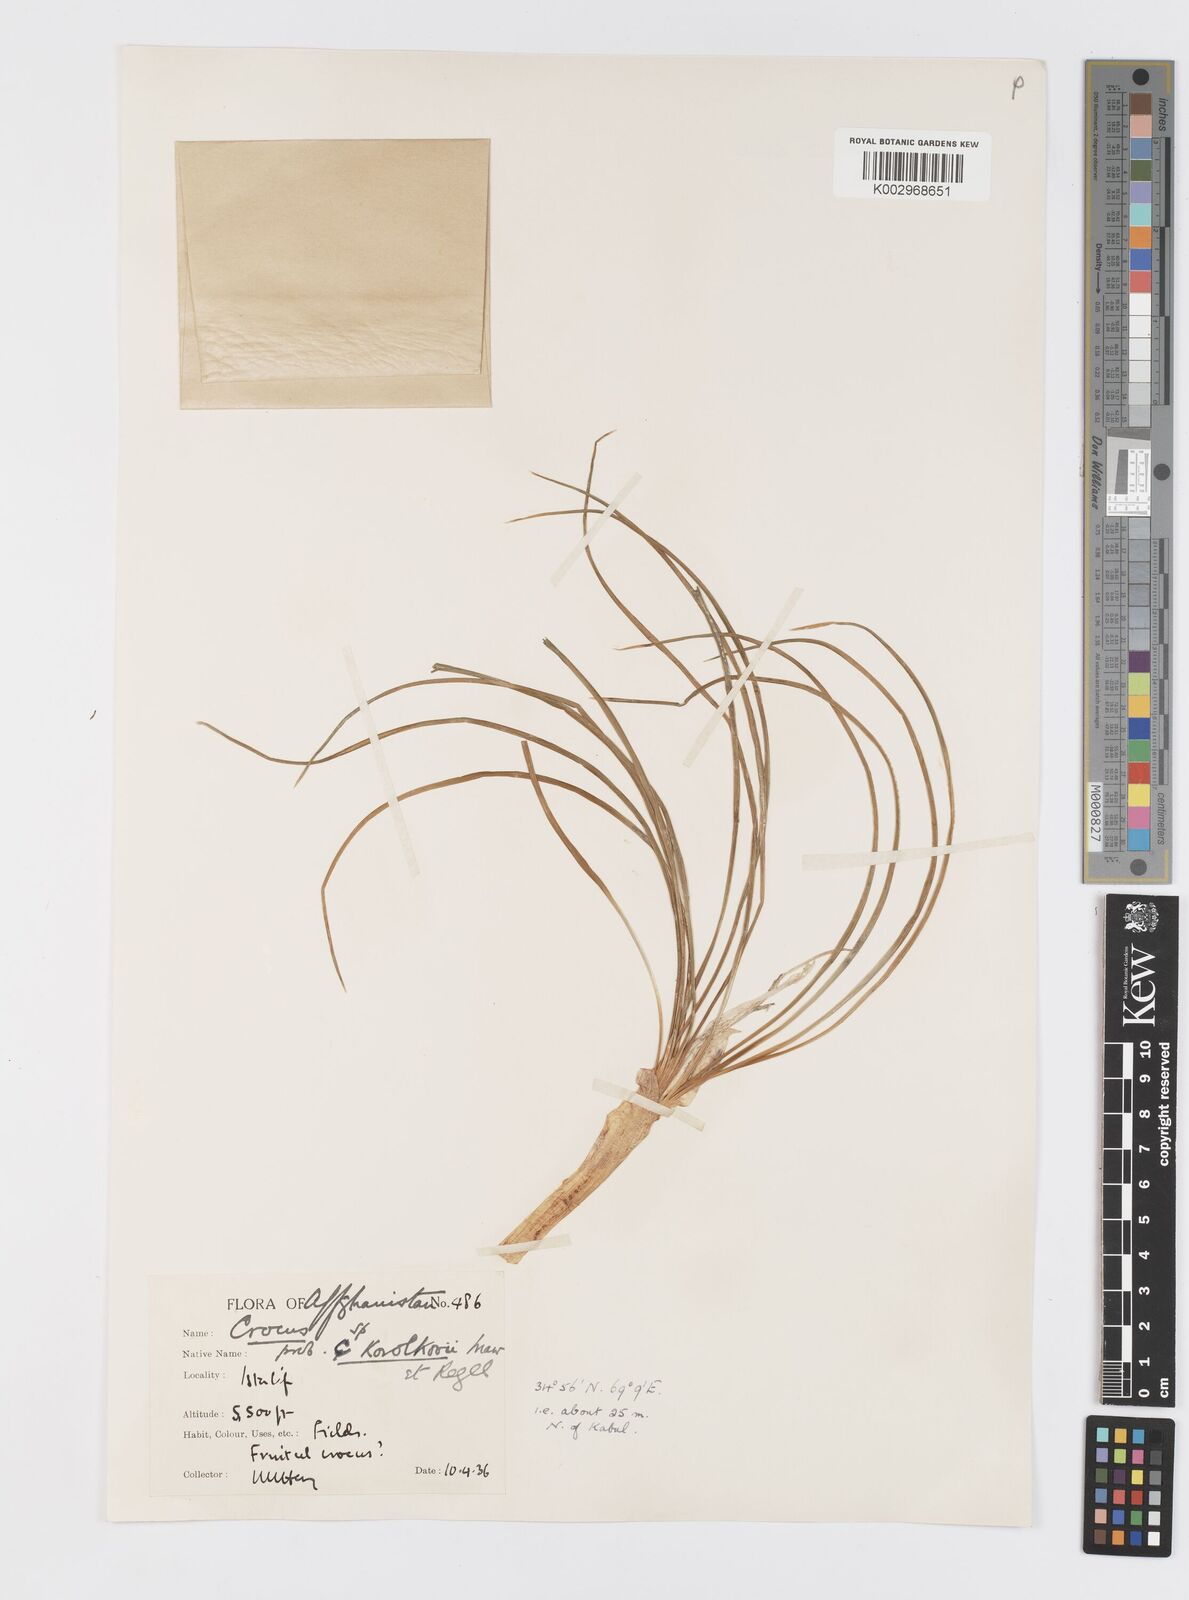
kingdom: Plantae
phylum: Tracheophyta
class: Liliopsida
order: Asparagales
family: Iridaceae
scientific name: Iridaceae
